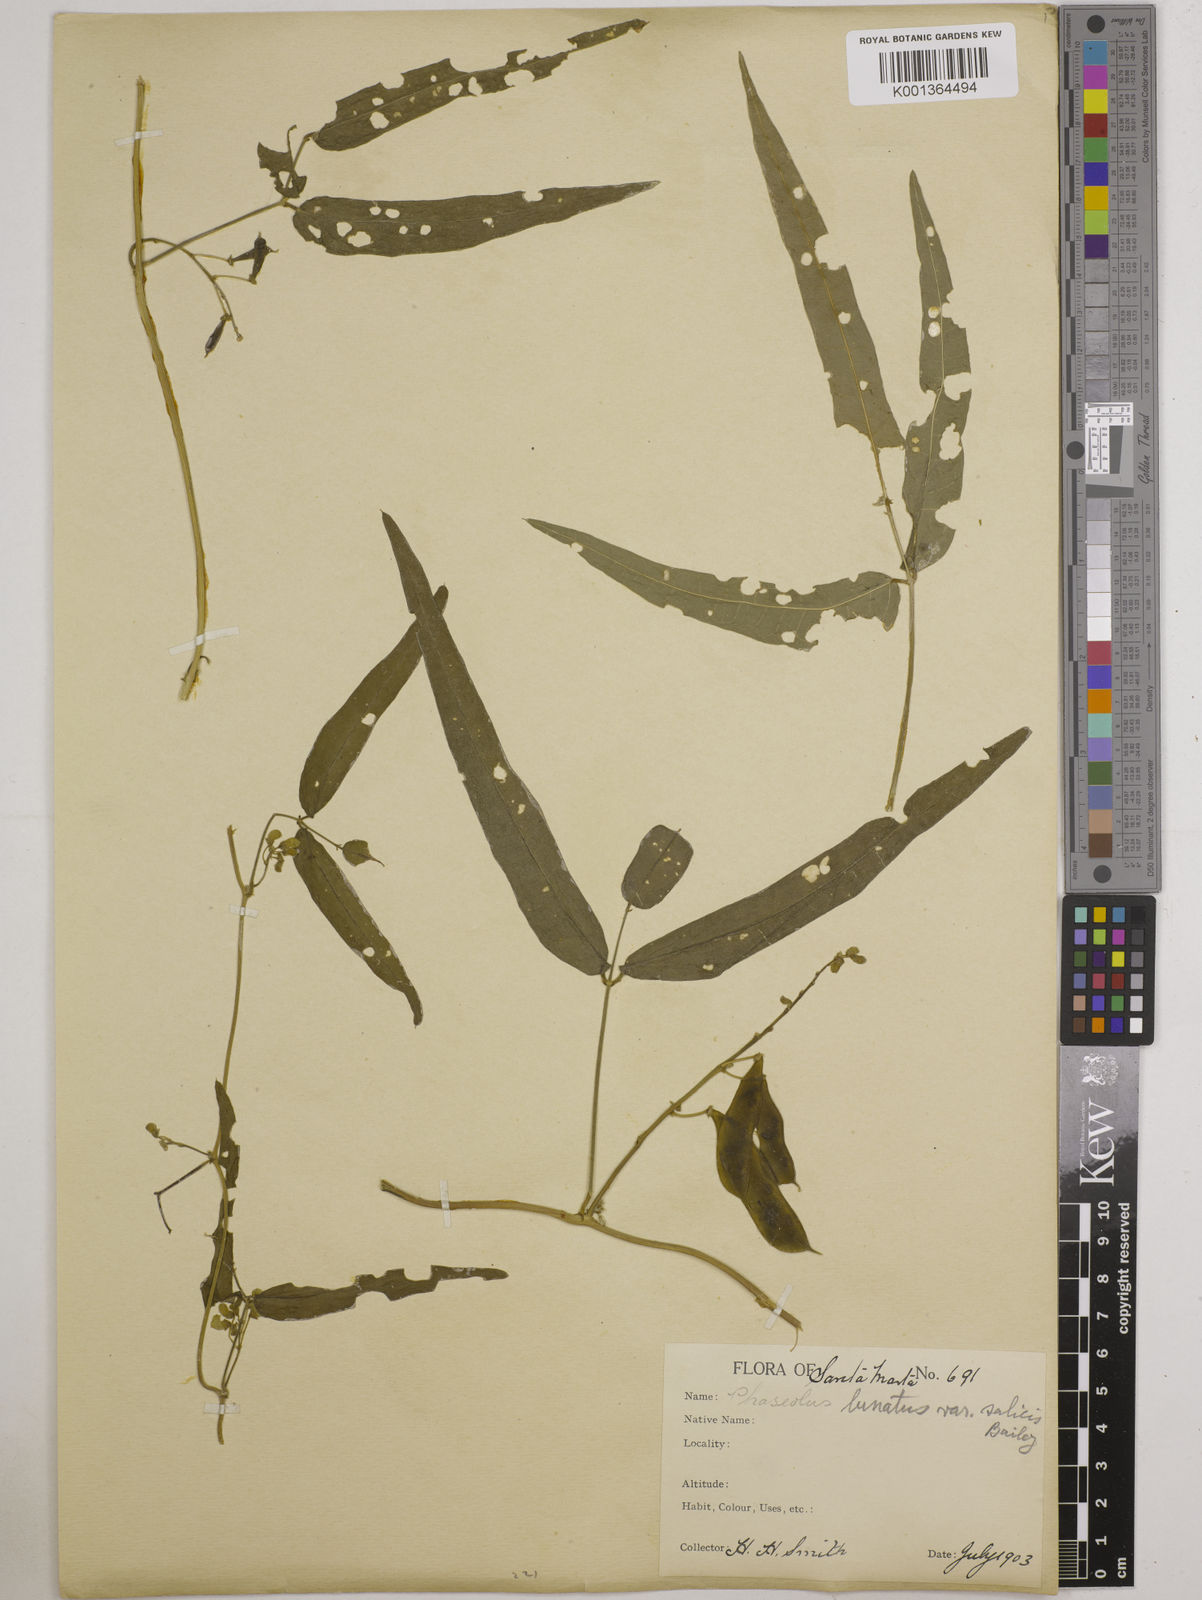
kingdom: Plantae
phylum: Tracheophyta
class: Magnoliopsida
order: Fabales
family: Fabaceae
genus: Phaseolus
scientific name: Phaseolus lunatus
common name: Sieva bean
